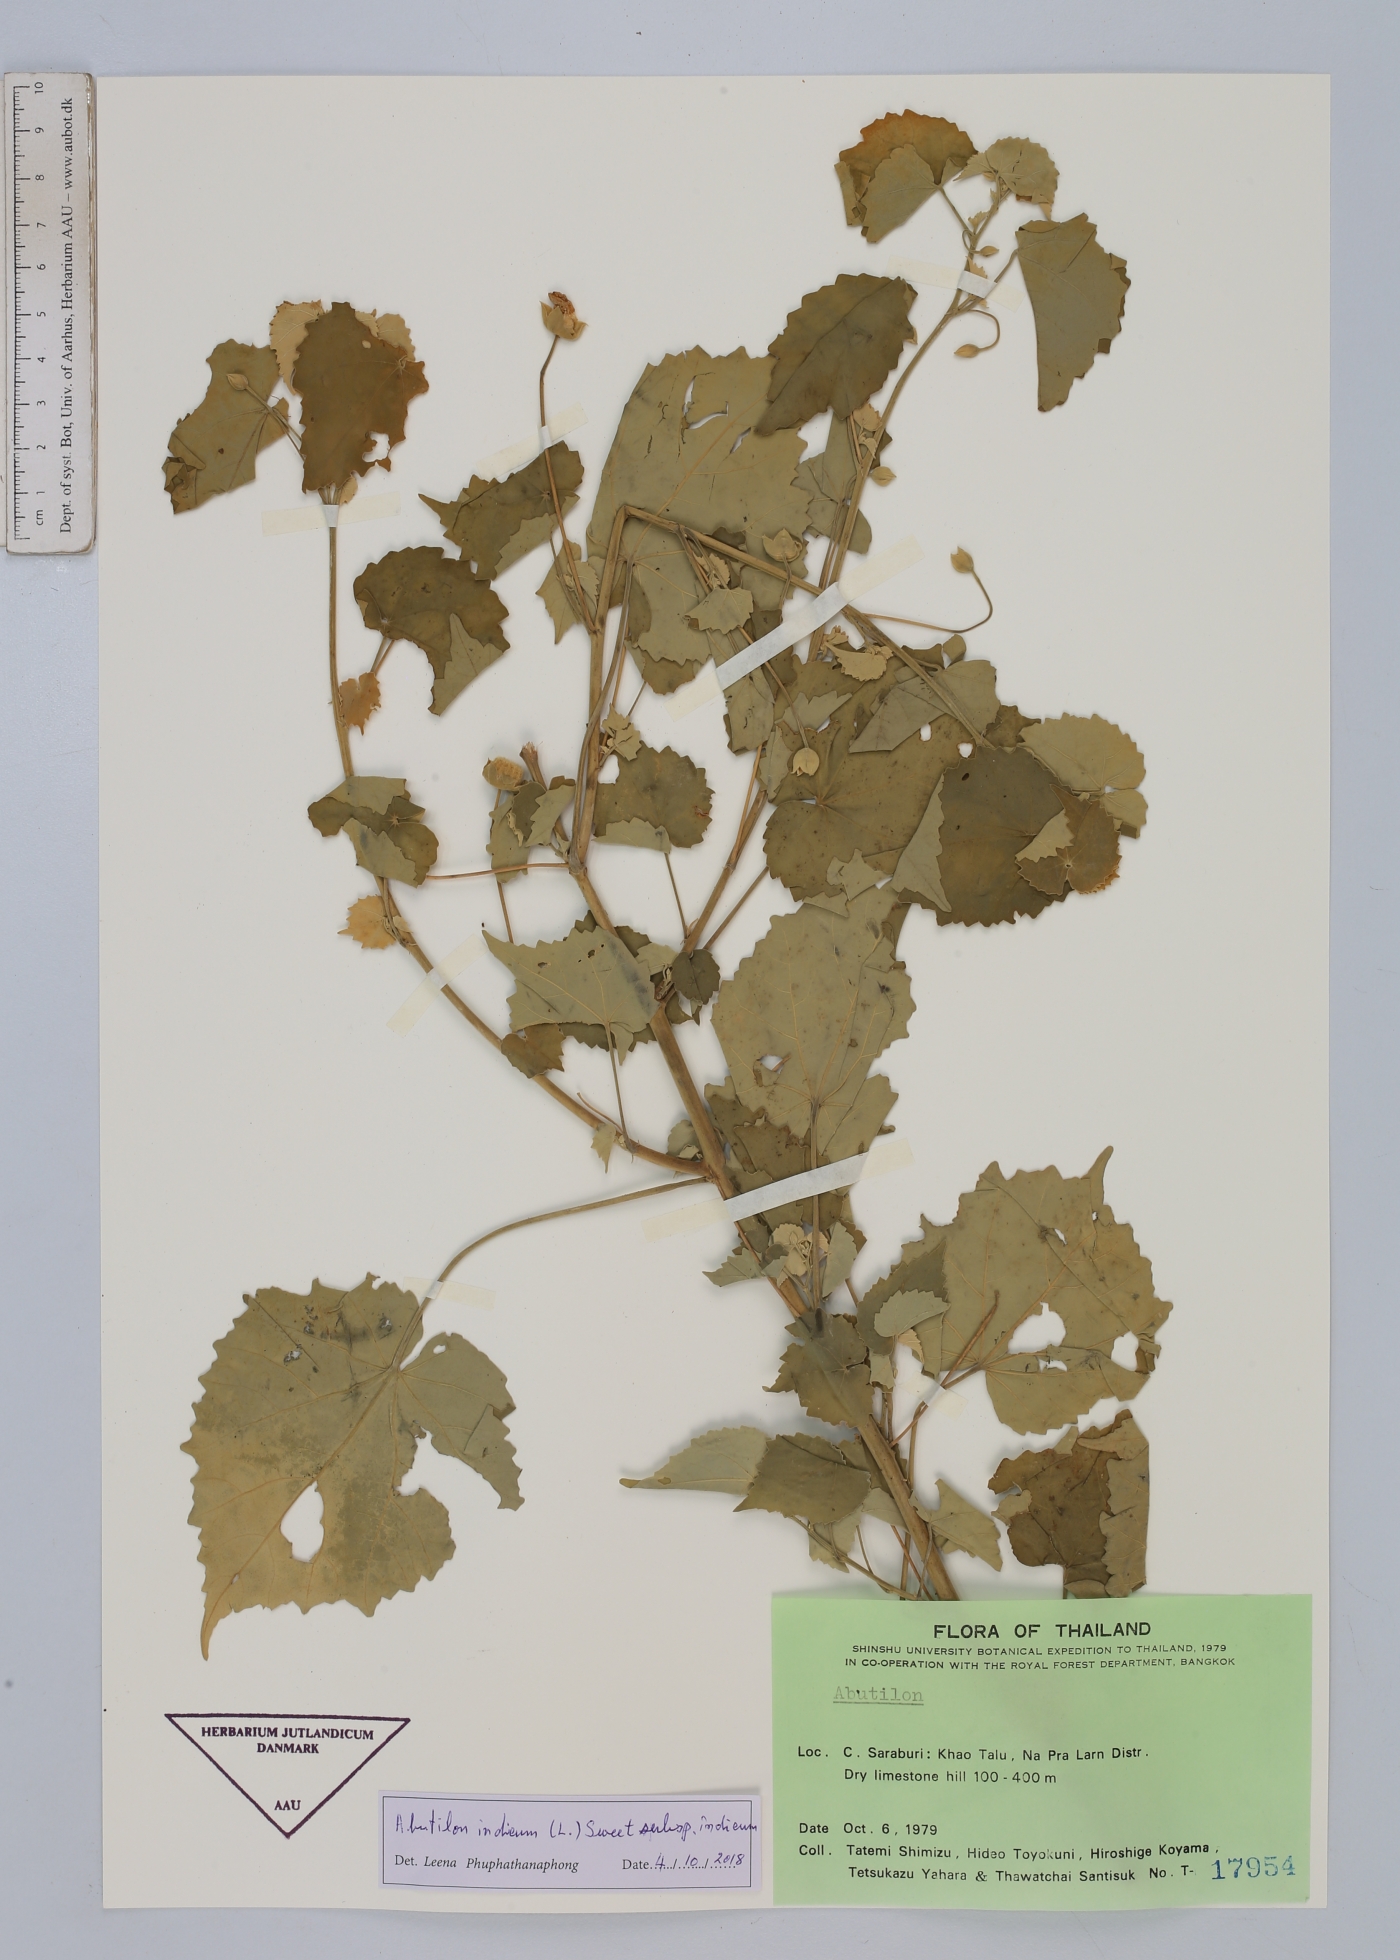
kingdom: Plantae
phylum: Tracheophyta
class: Magnoliopsida
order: Malvales
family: Malvaceae
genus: Abutilon
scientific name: Abutilon indicum
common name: Indian abutilon
